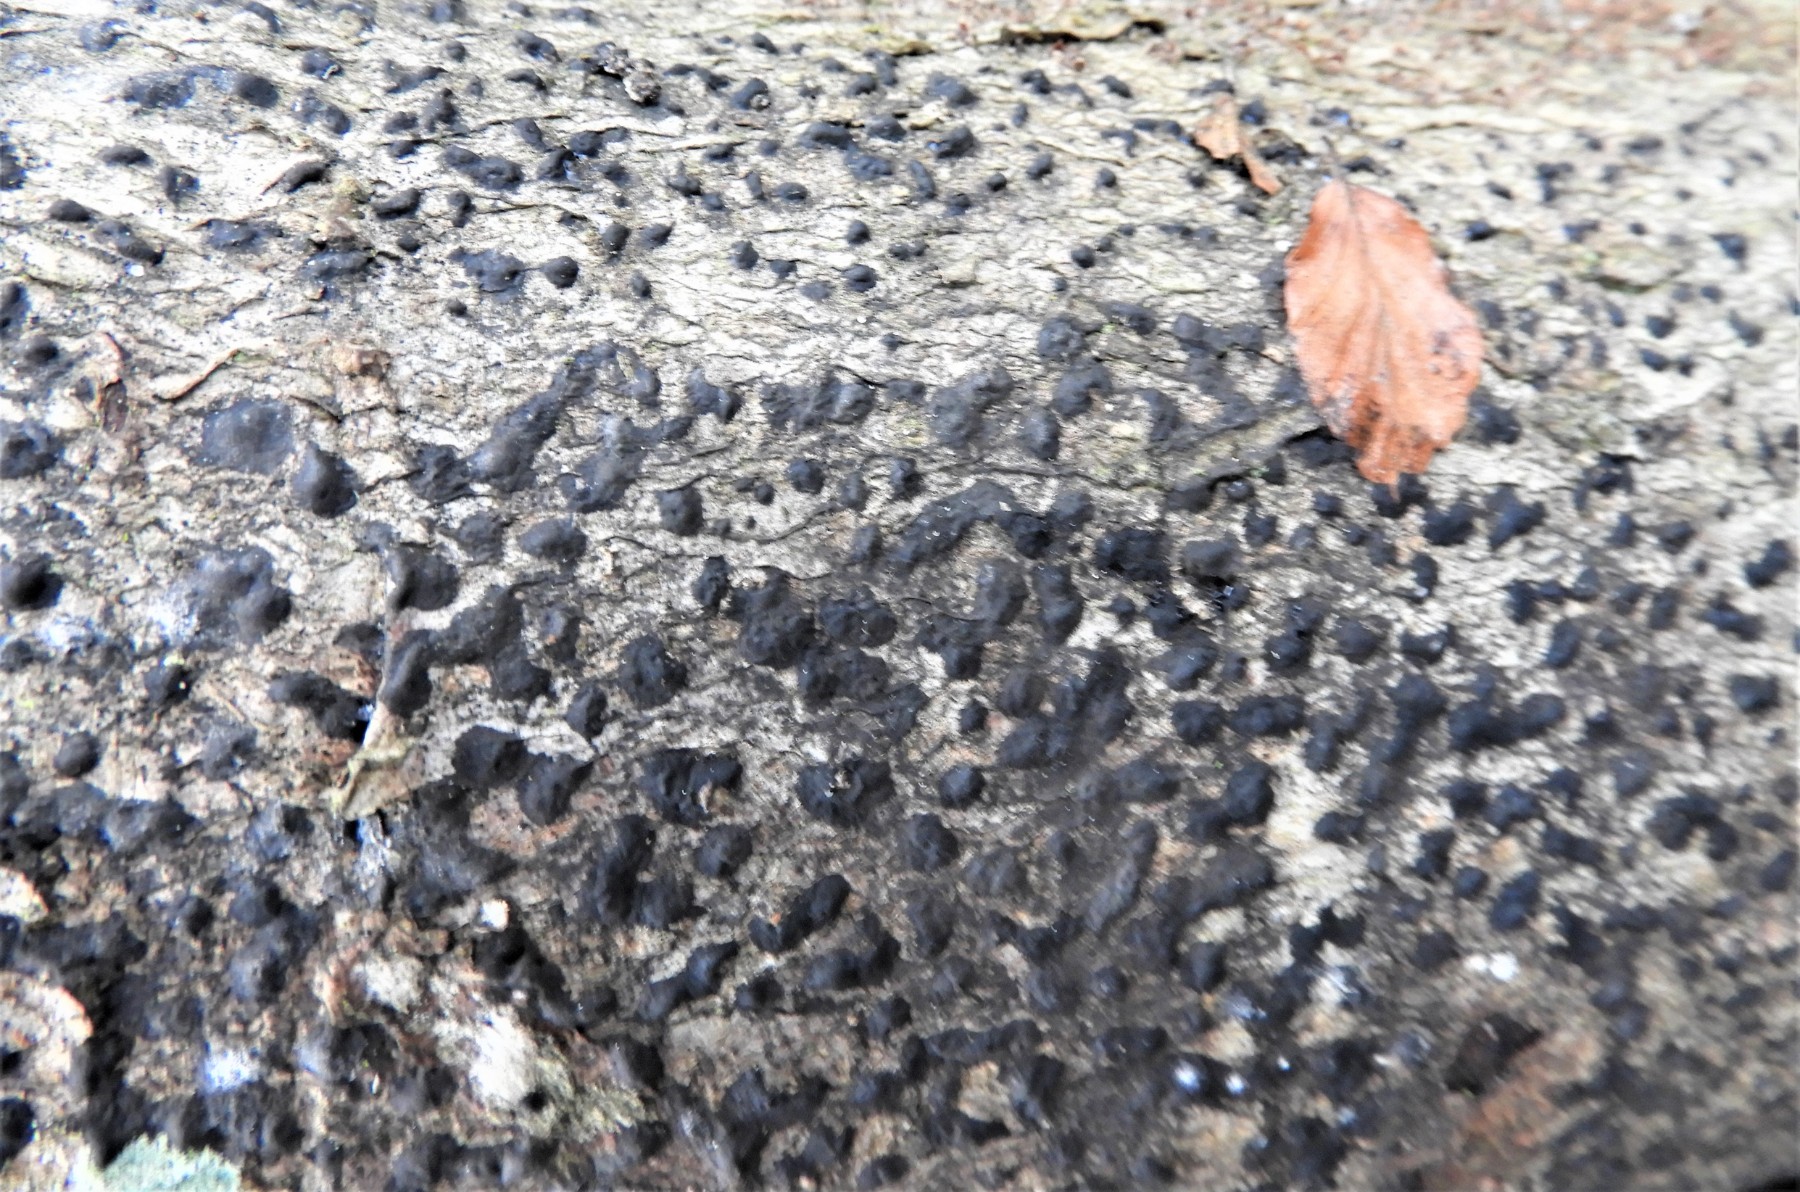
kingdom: Fungi
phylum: Ascomycota
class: Sordariomycetes
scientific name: Sordariomycetes
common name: kernesvampklassen
